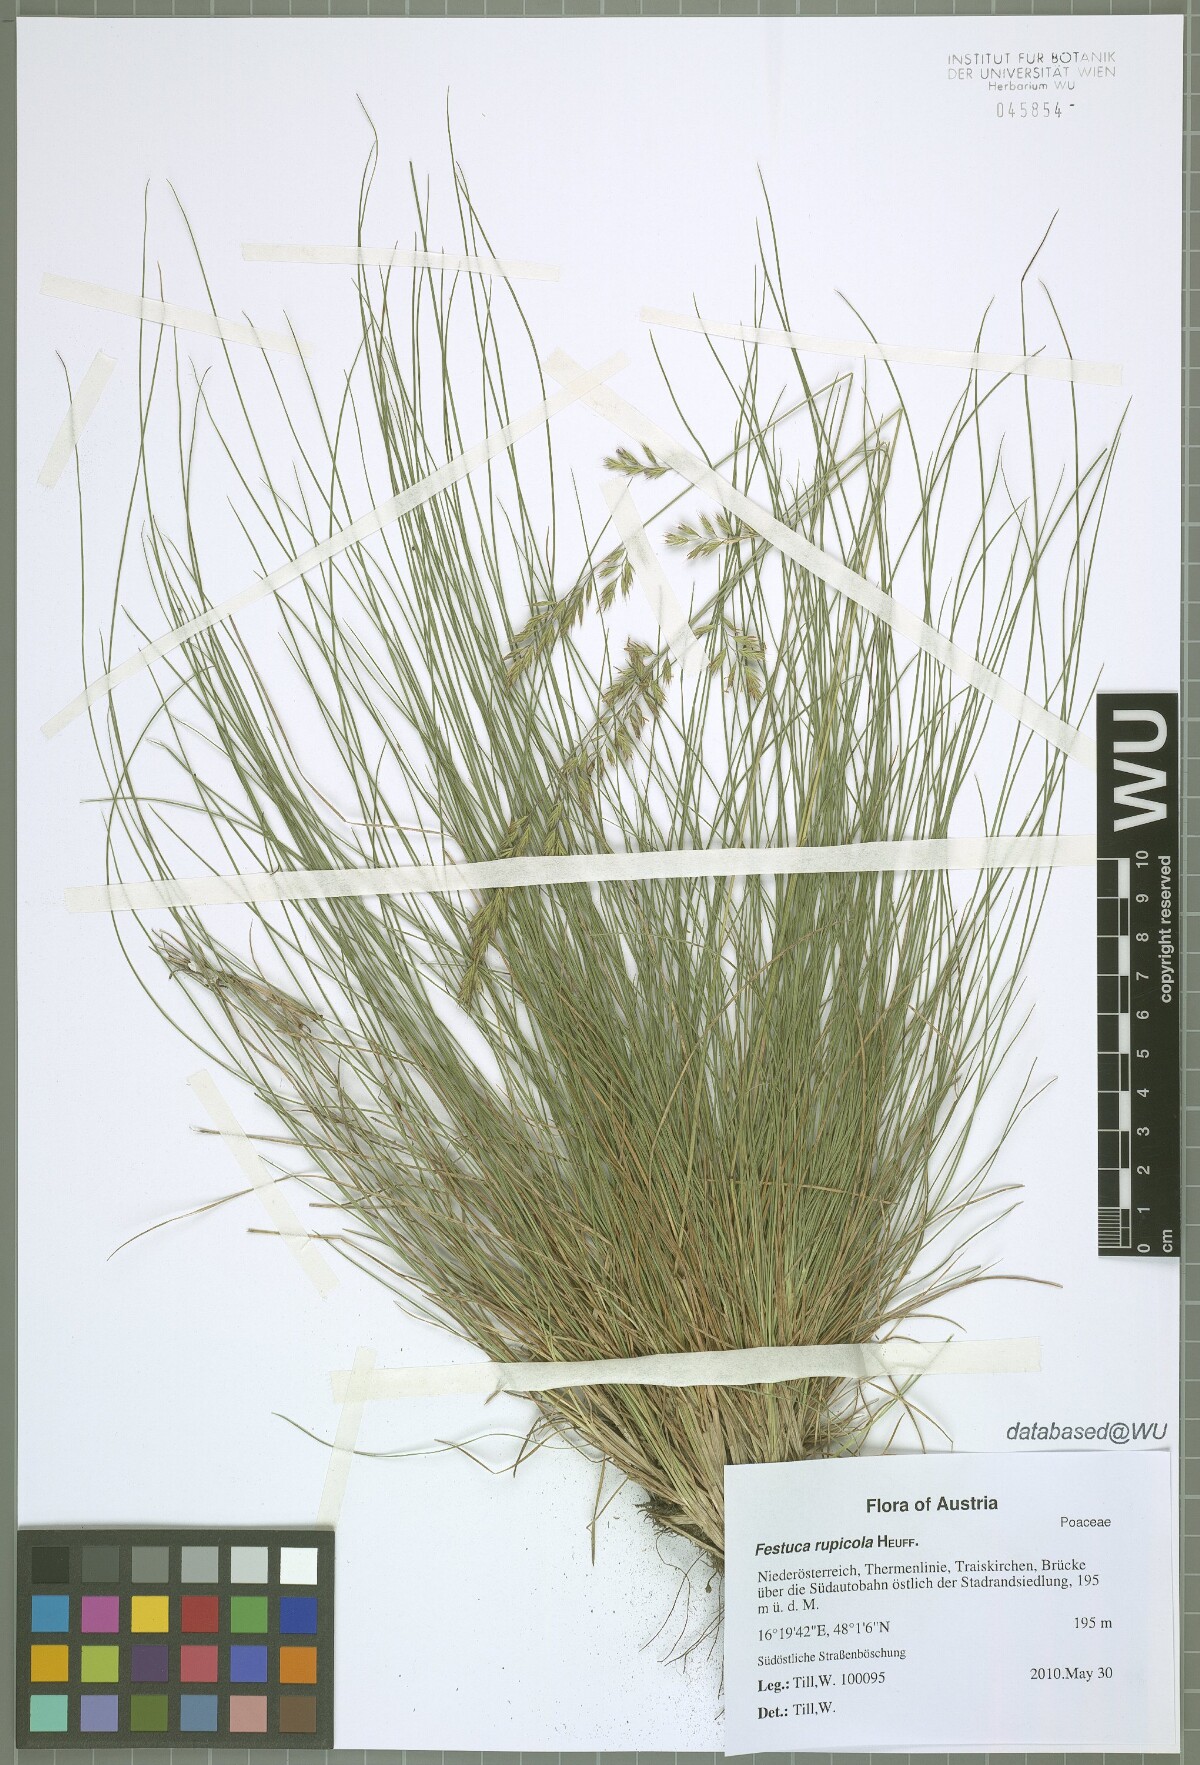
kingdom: Plantae
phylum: Tracheophyta
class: Liliopsida
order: Poales
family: Poaceae
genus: Festuca
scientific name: Festuca rupicola
